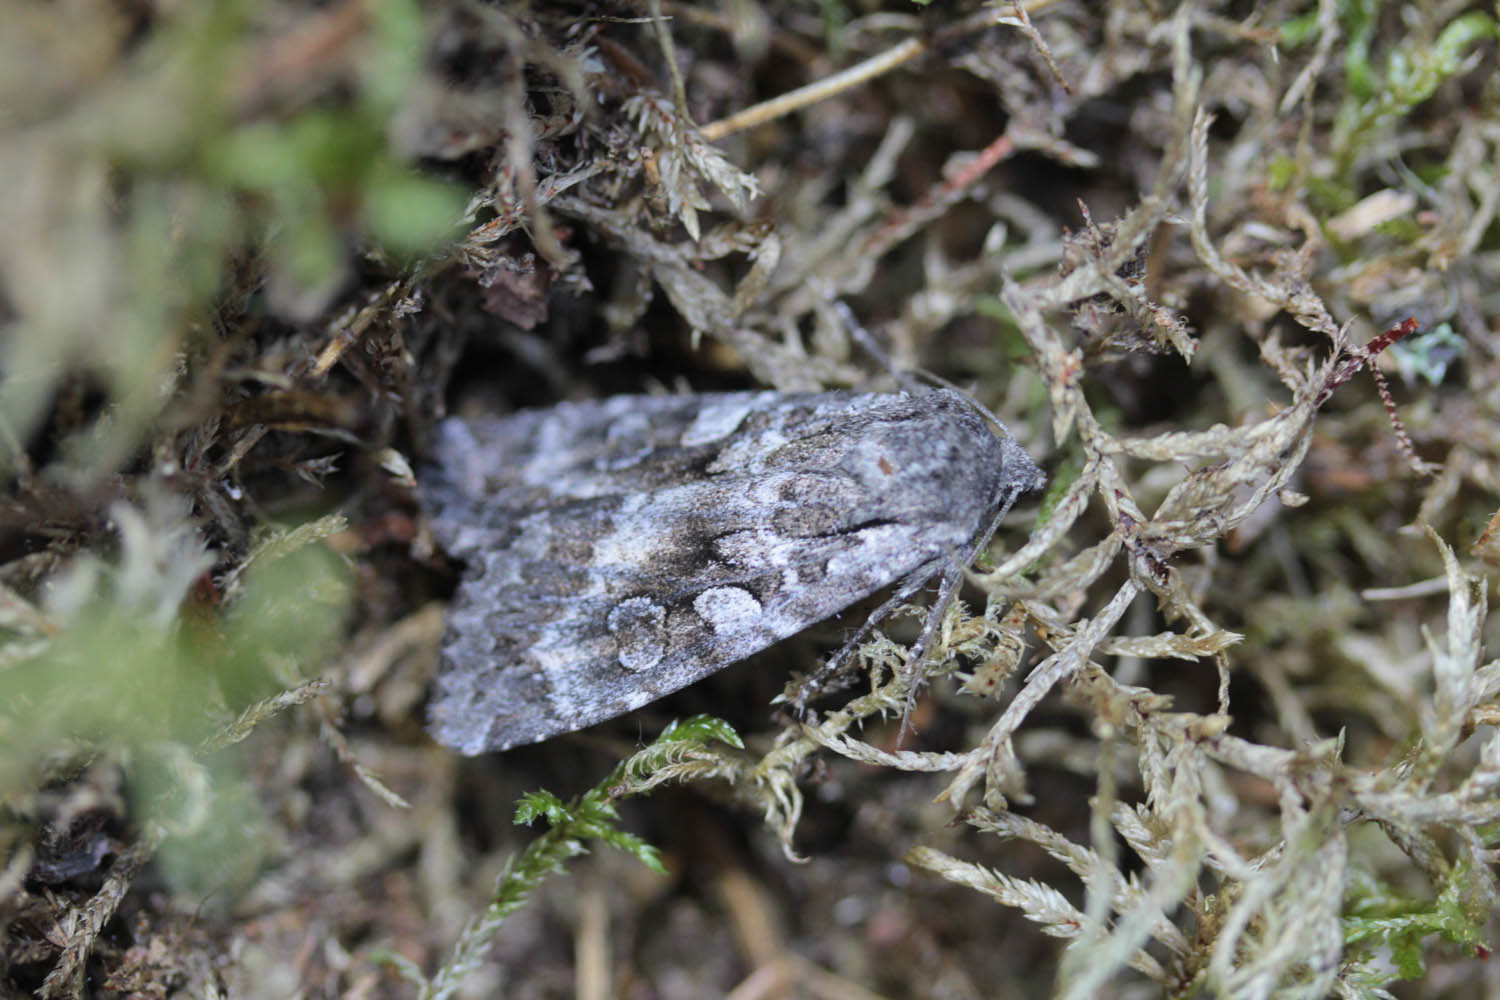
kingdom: Animalia
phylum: Arthropoda
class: Insecta
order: Lepidoptera
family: Noctuidae
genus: Eurois
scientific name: Eurois occulta
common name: Great brocade
